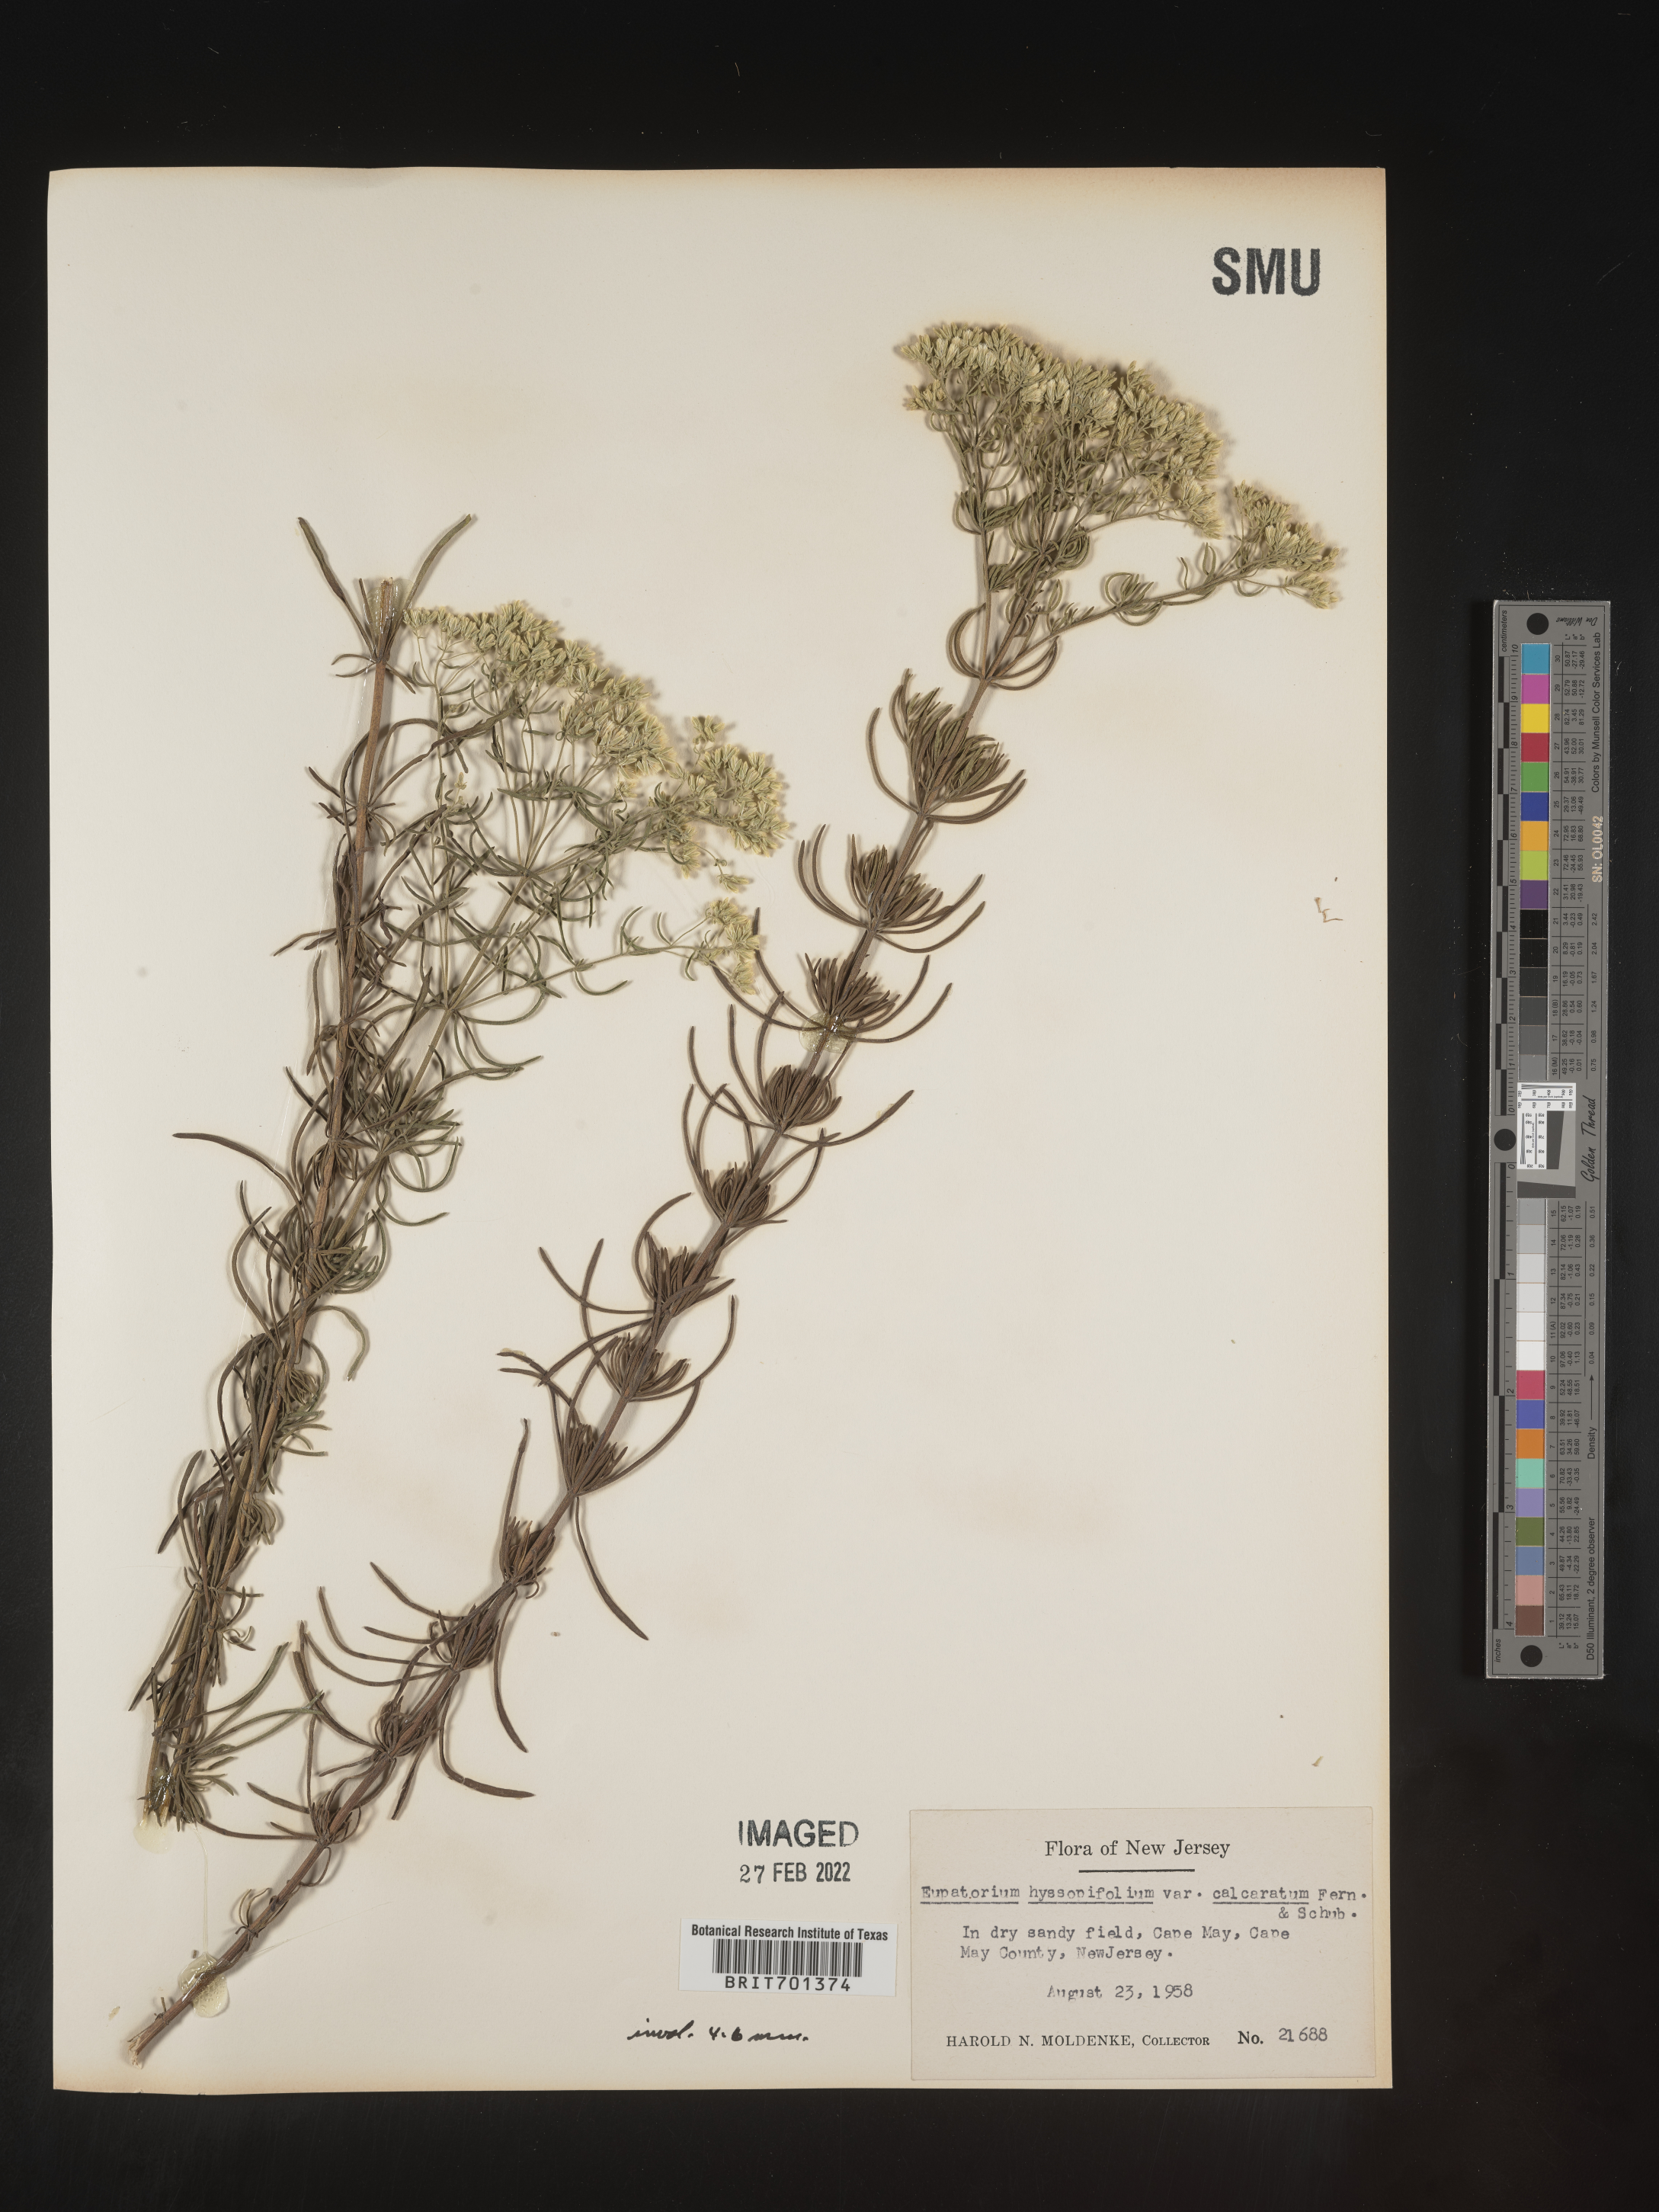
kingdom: Plantae
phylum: Tracheophyta
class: Magnoliopsida
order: Asterales
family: Asteraceae
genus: Eupatorium
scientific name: Eupatorium hyssopifolium
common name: Hyssop-leaf thoroughwort
